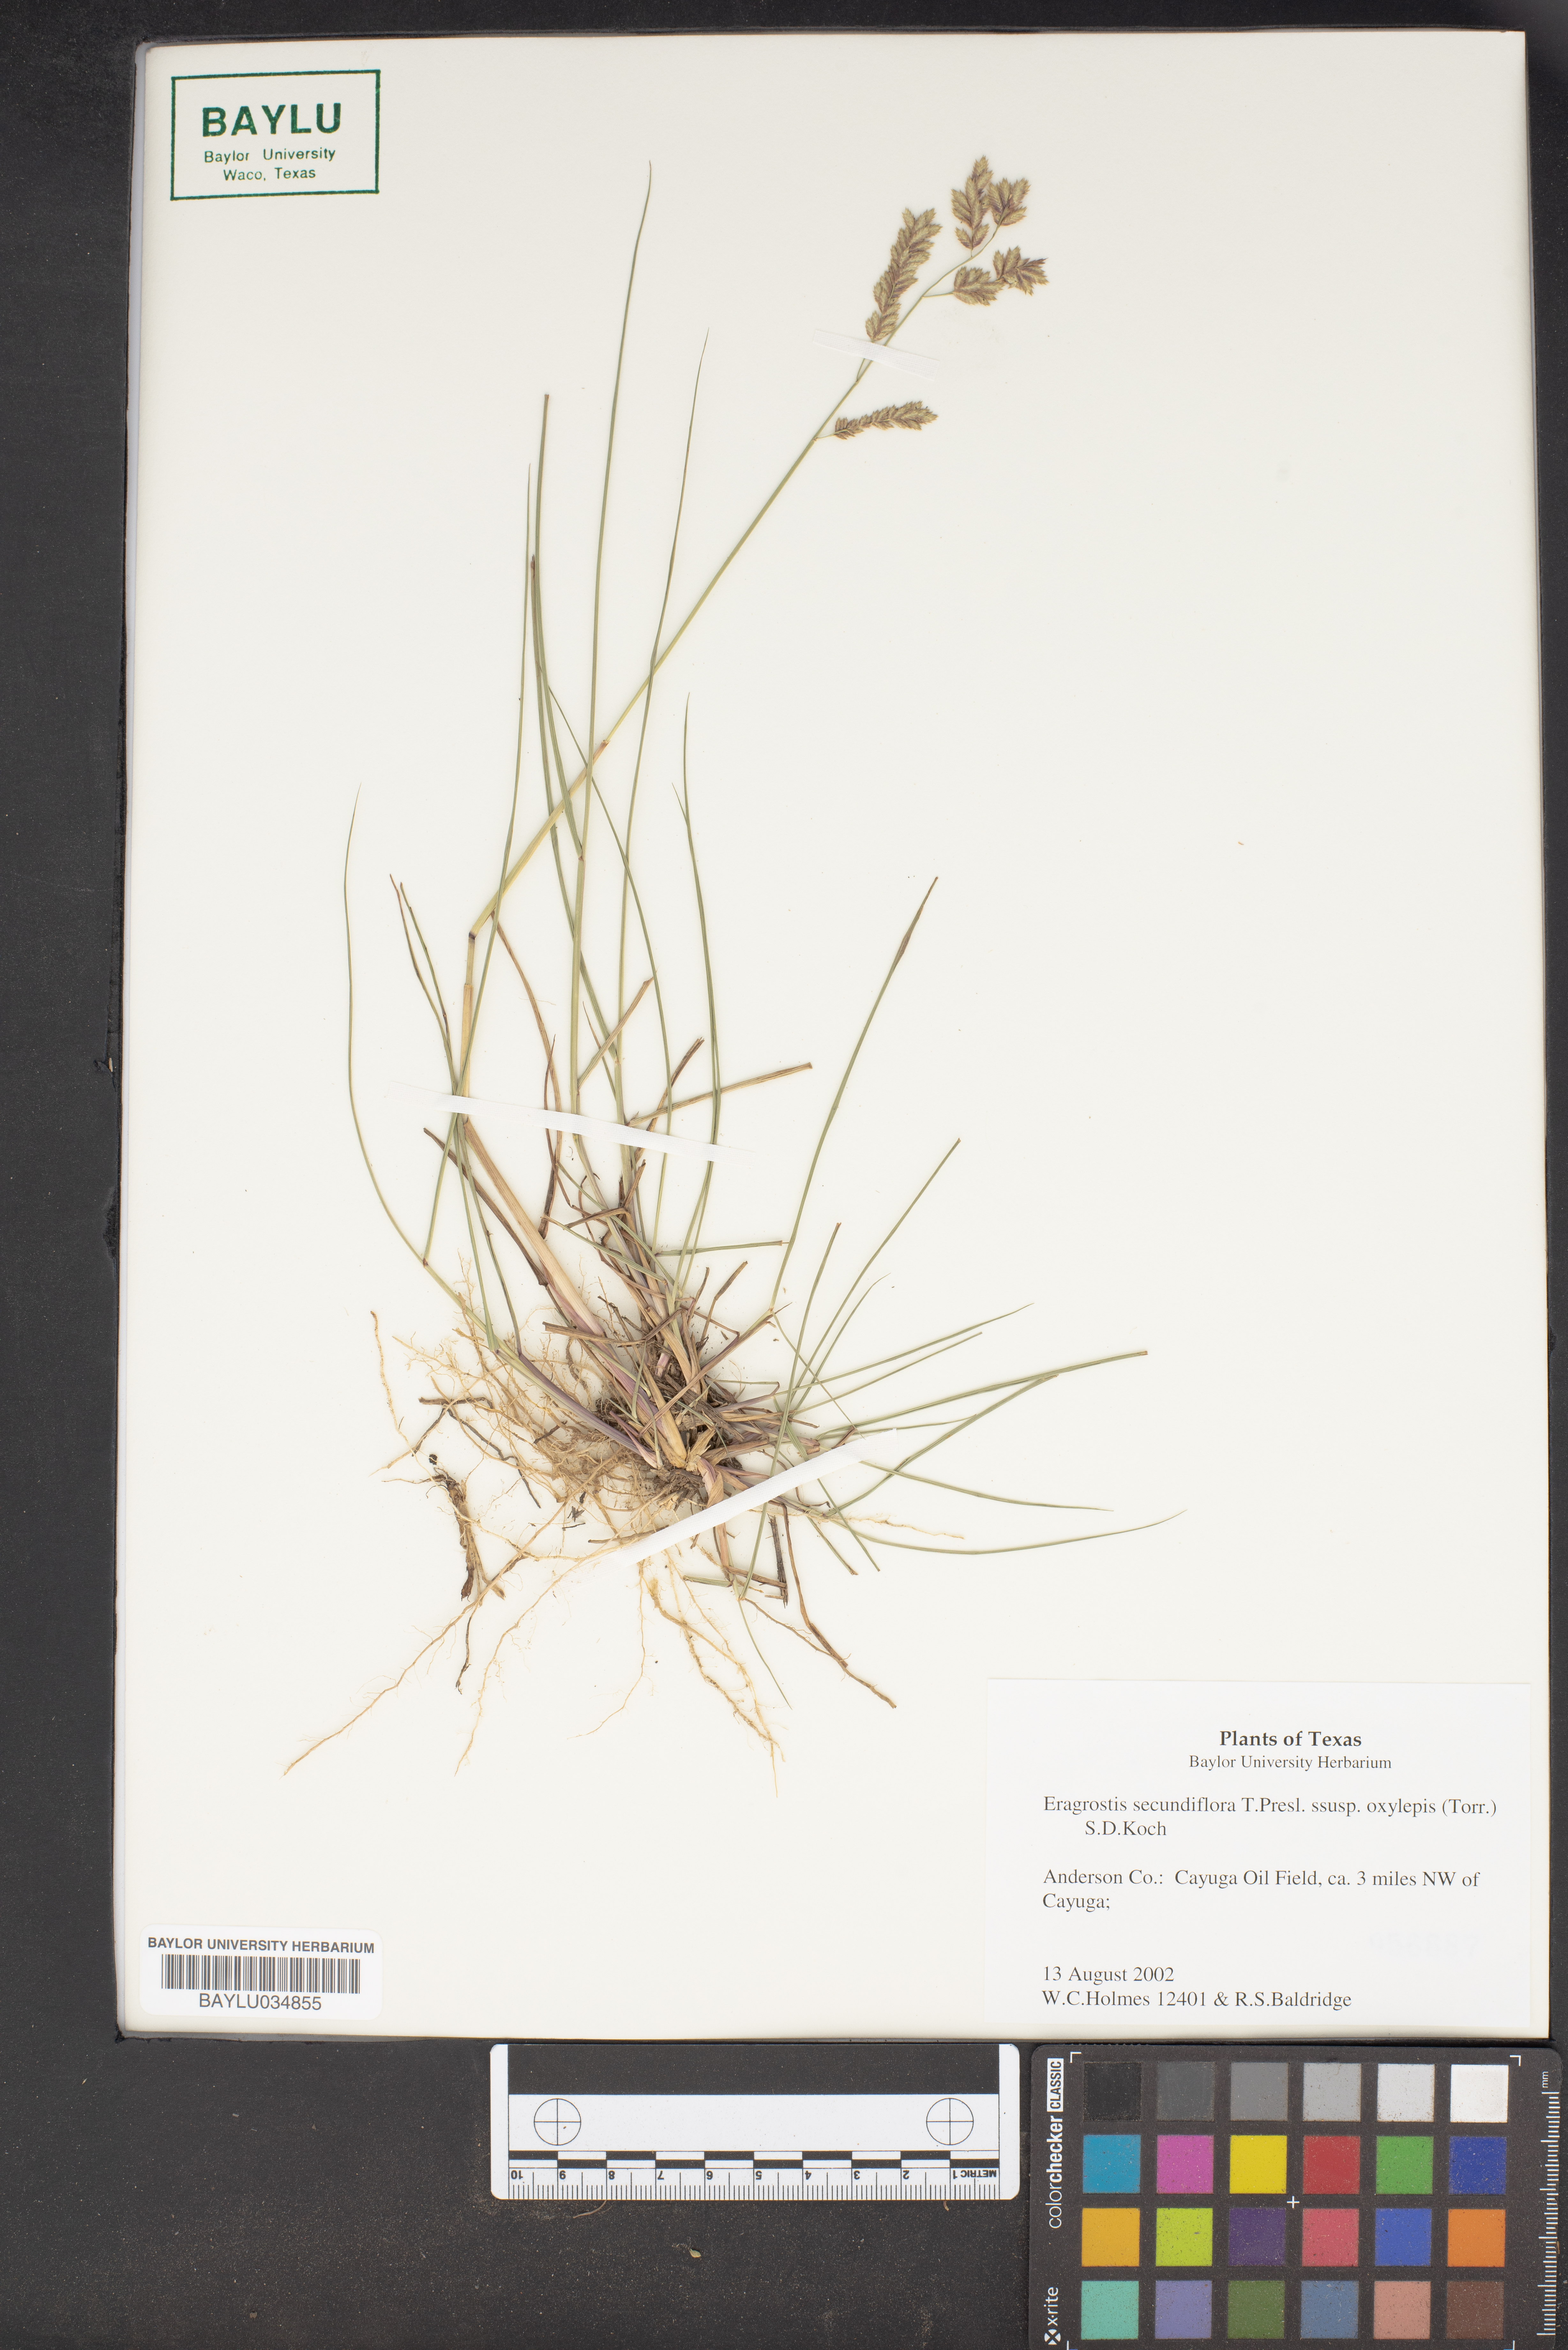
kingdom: Plantae
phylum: Tracheophyta
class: Liliopsida
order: Poales
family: Poaceae
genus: Eragrostis
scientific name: Eragrostis secundiflora
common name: Red love grass
